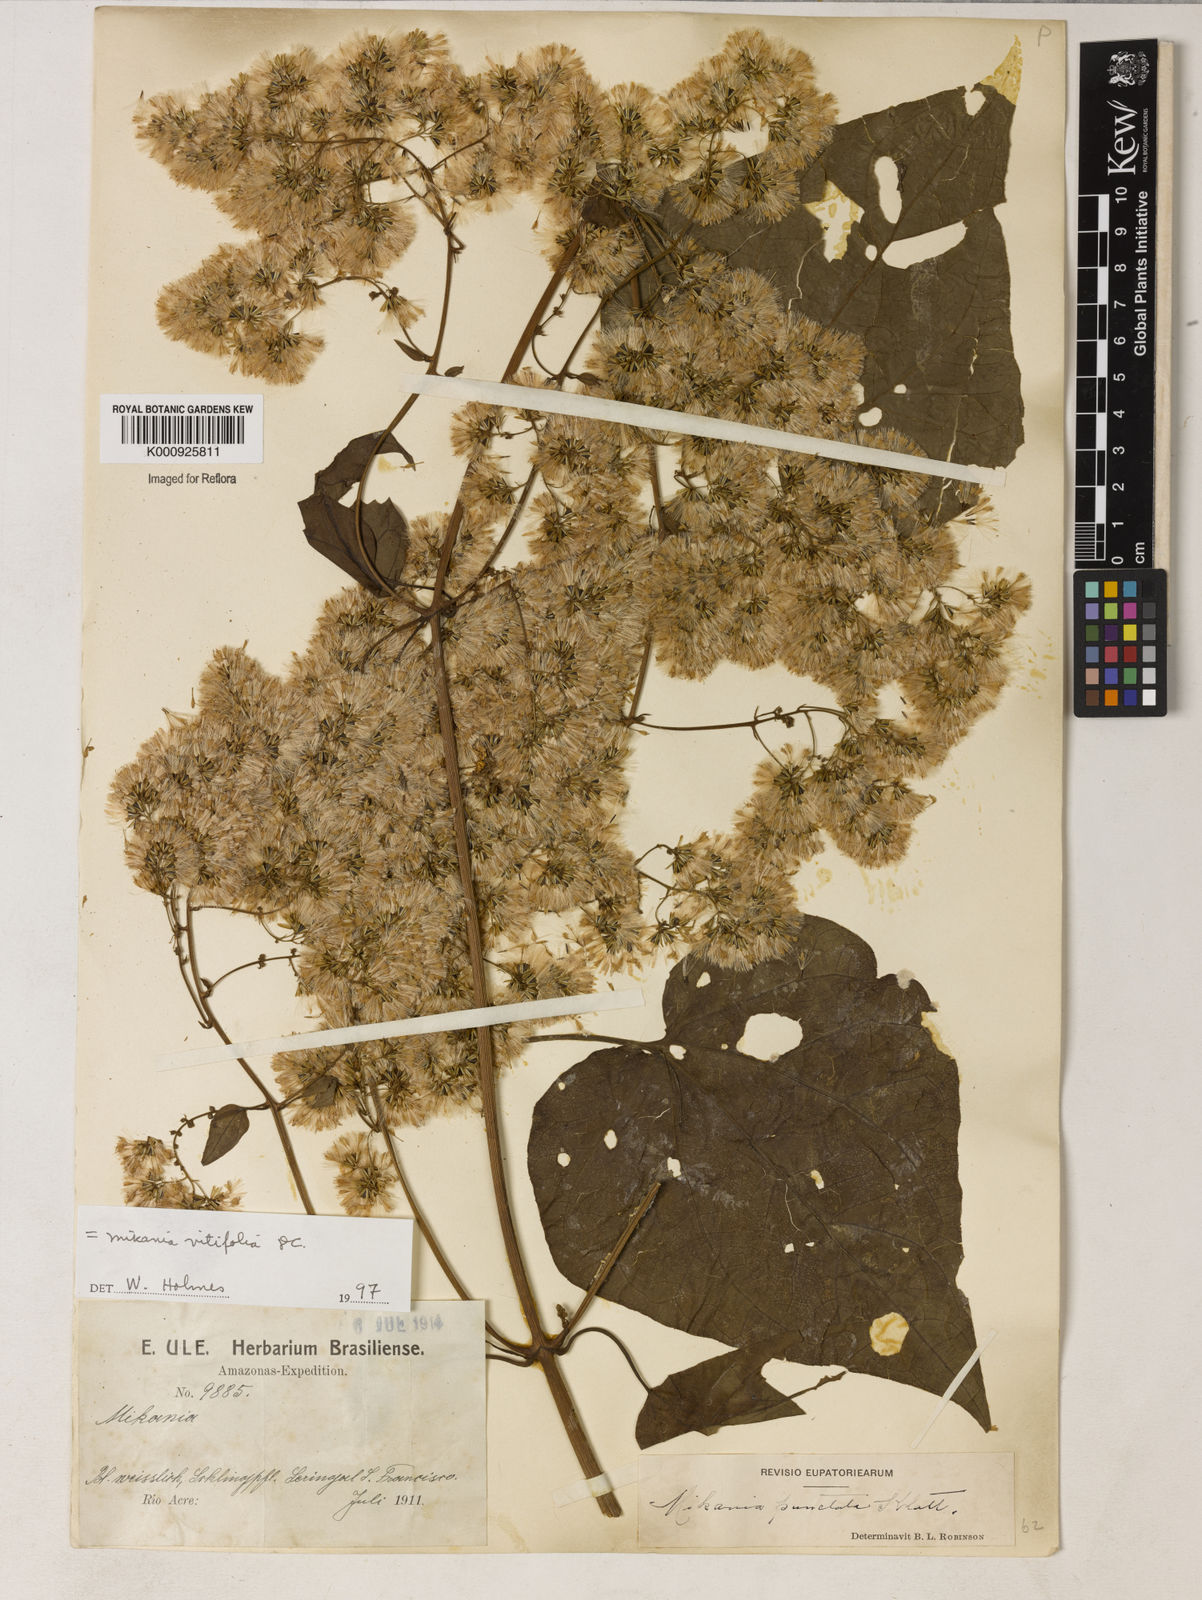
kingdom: Plantae
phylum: Tracheophyta
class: Magnoliopsida
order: Asterales
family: Asteraceae
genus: Mikania
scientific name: Mikania vitifolia
